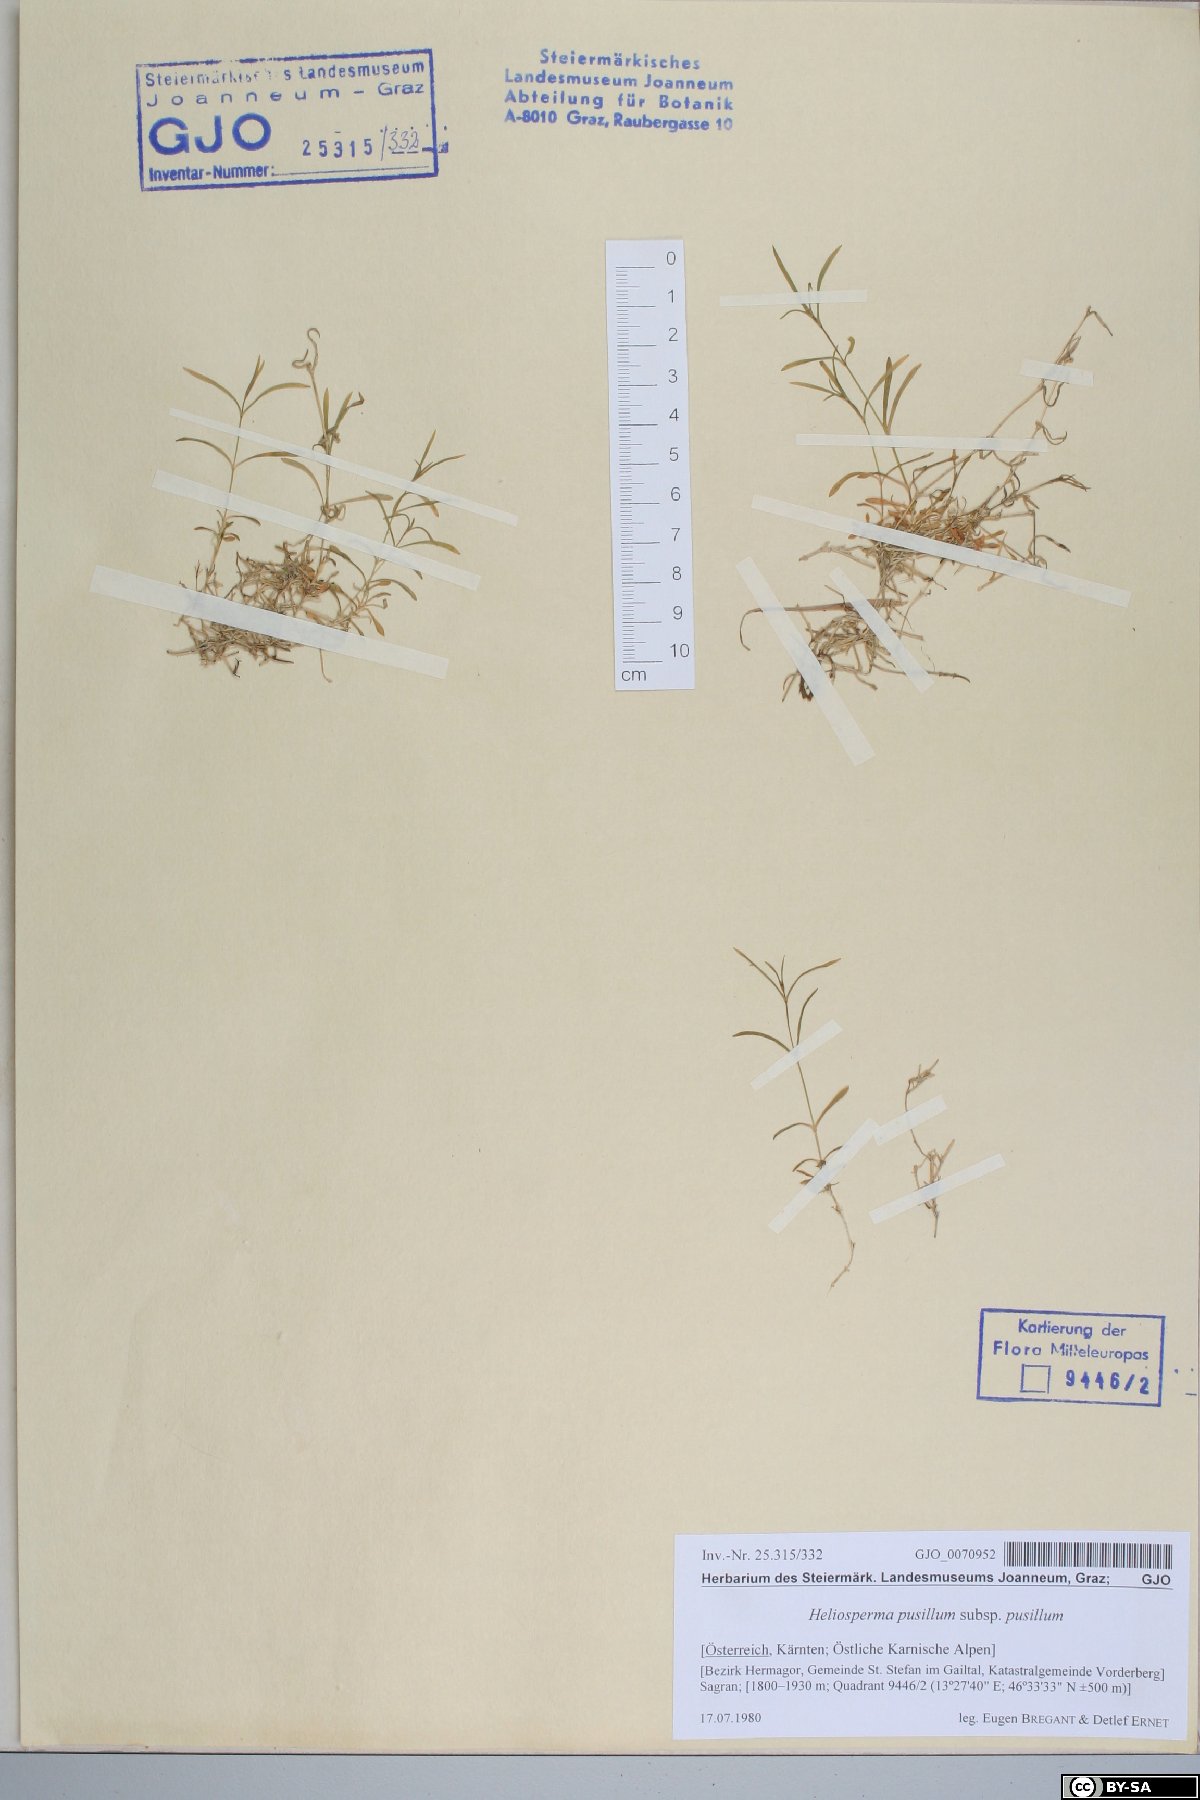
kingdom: Plantae
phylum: Tracheophyta
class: Magnoliopsida
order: Caryophyllales
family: Caryophyllaceae
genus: Heliosperma
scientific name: Heliosperma pusillum
